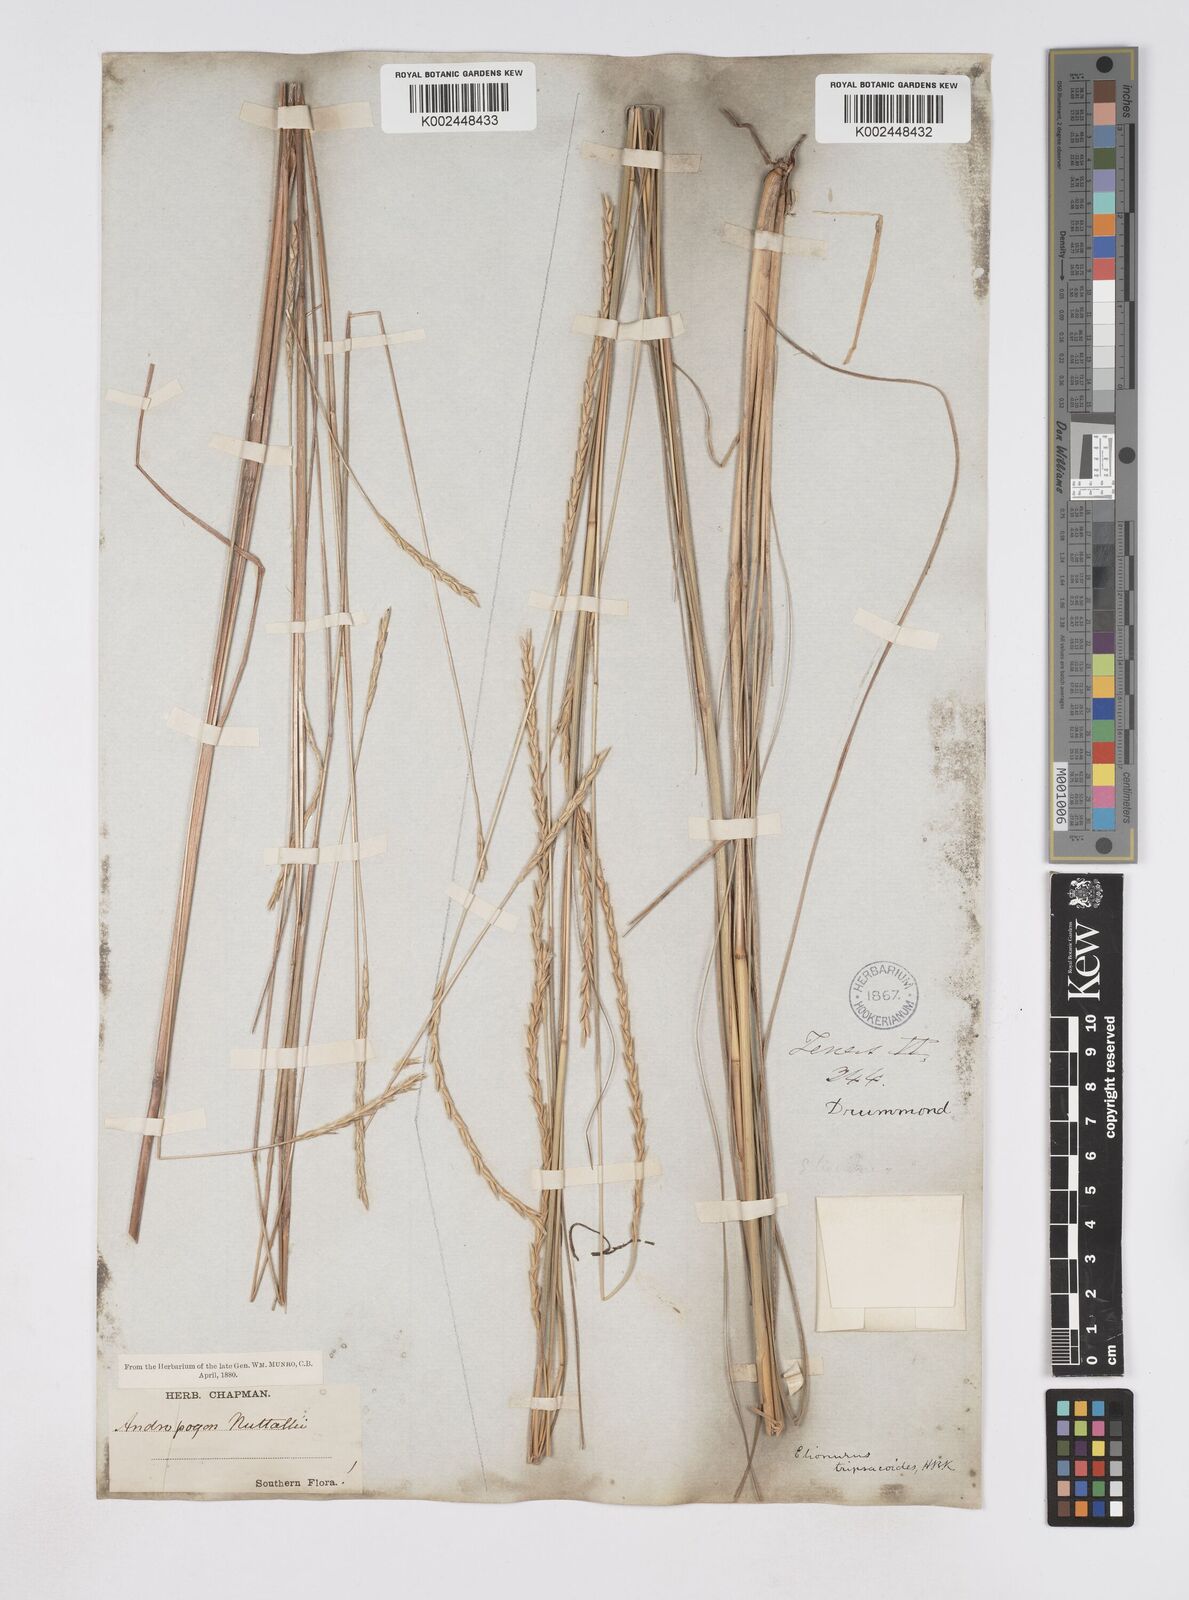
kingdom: Plantae
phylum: Tracheophyta
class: Liliopsida
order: Poales
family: Poaceae
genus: Elionurus
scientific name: Elionurus tripsacoides
